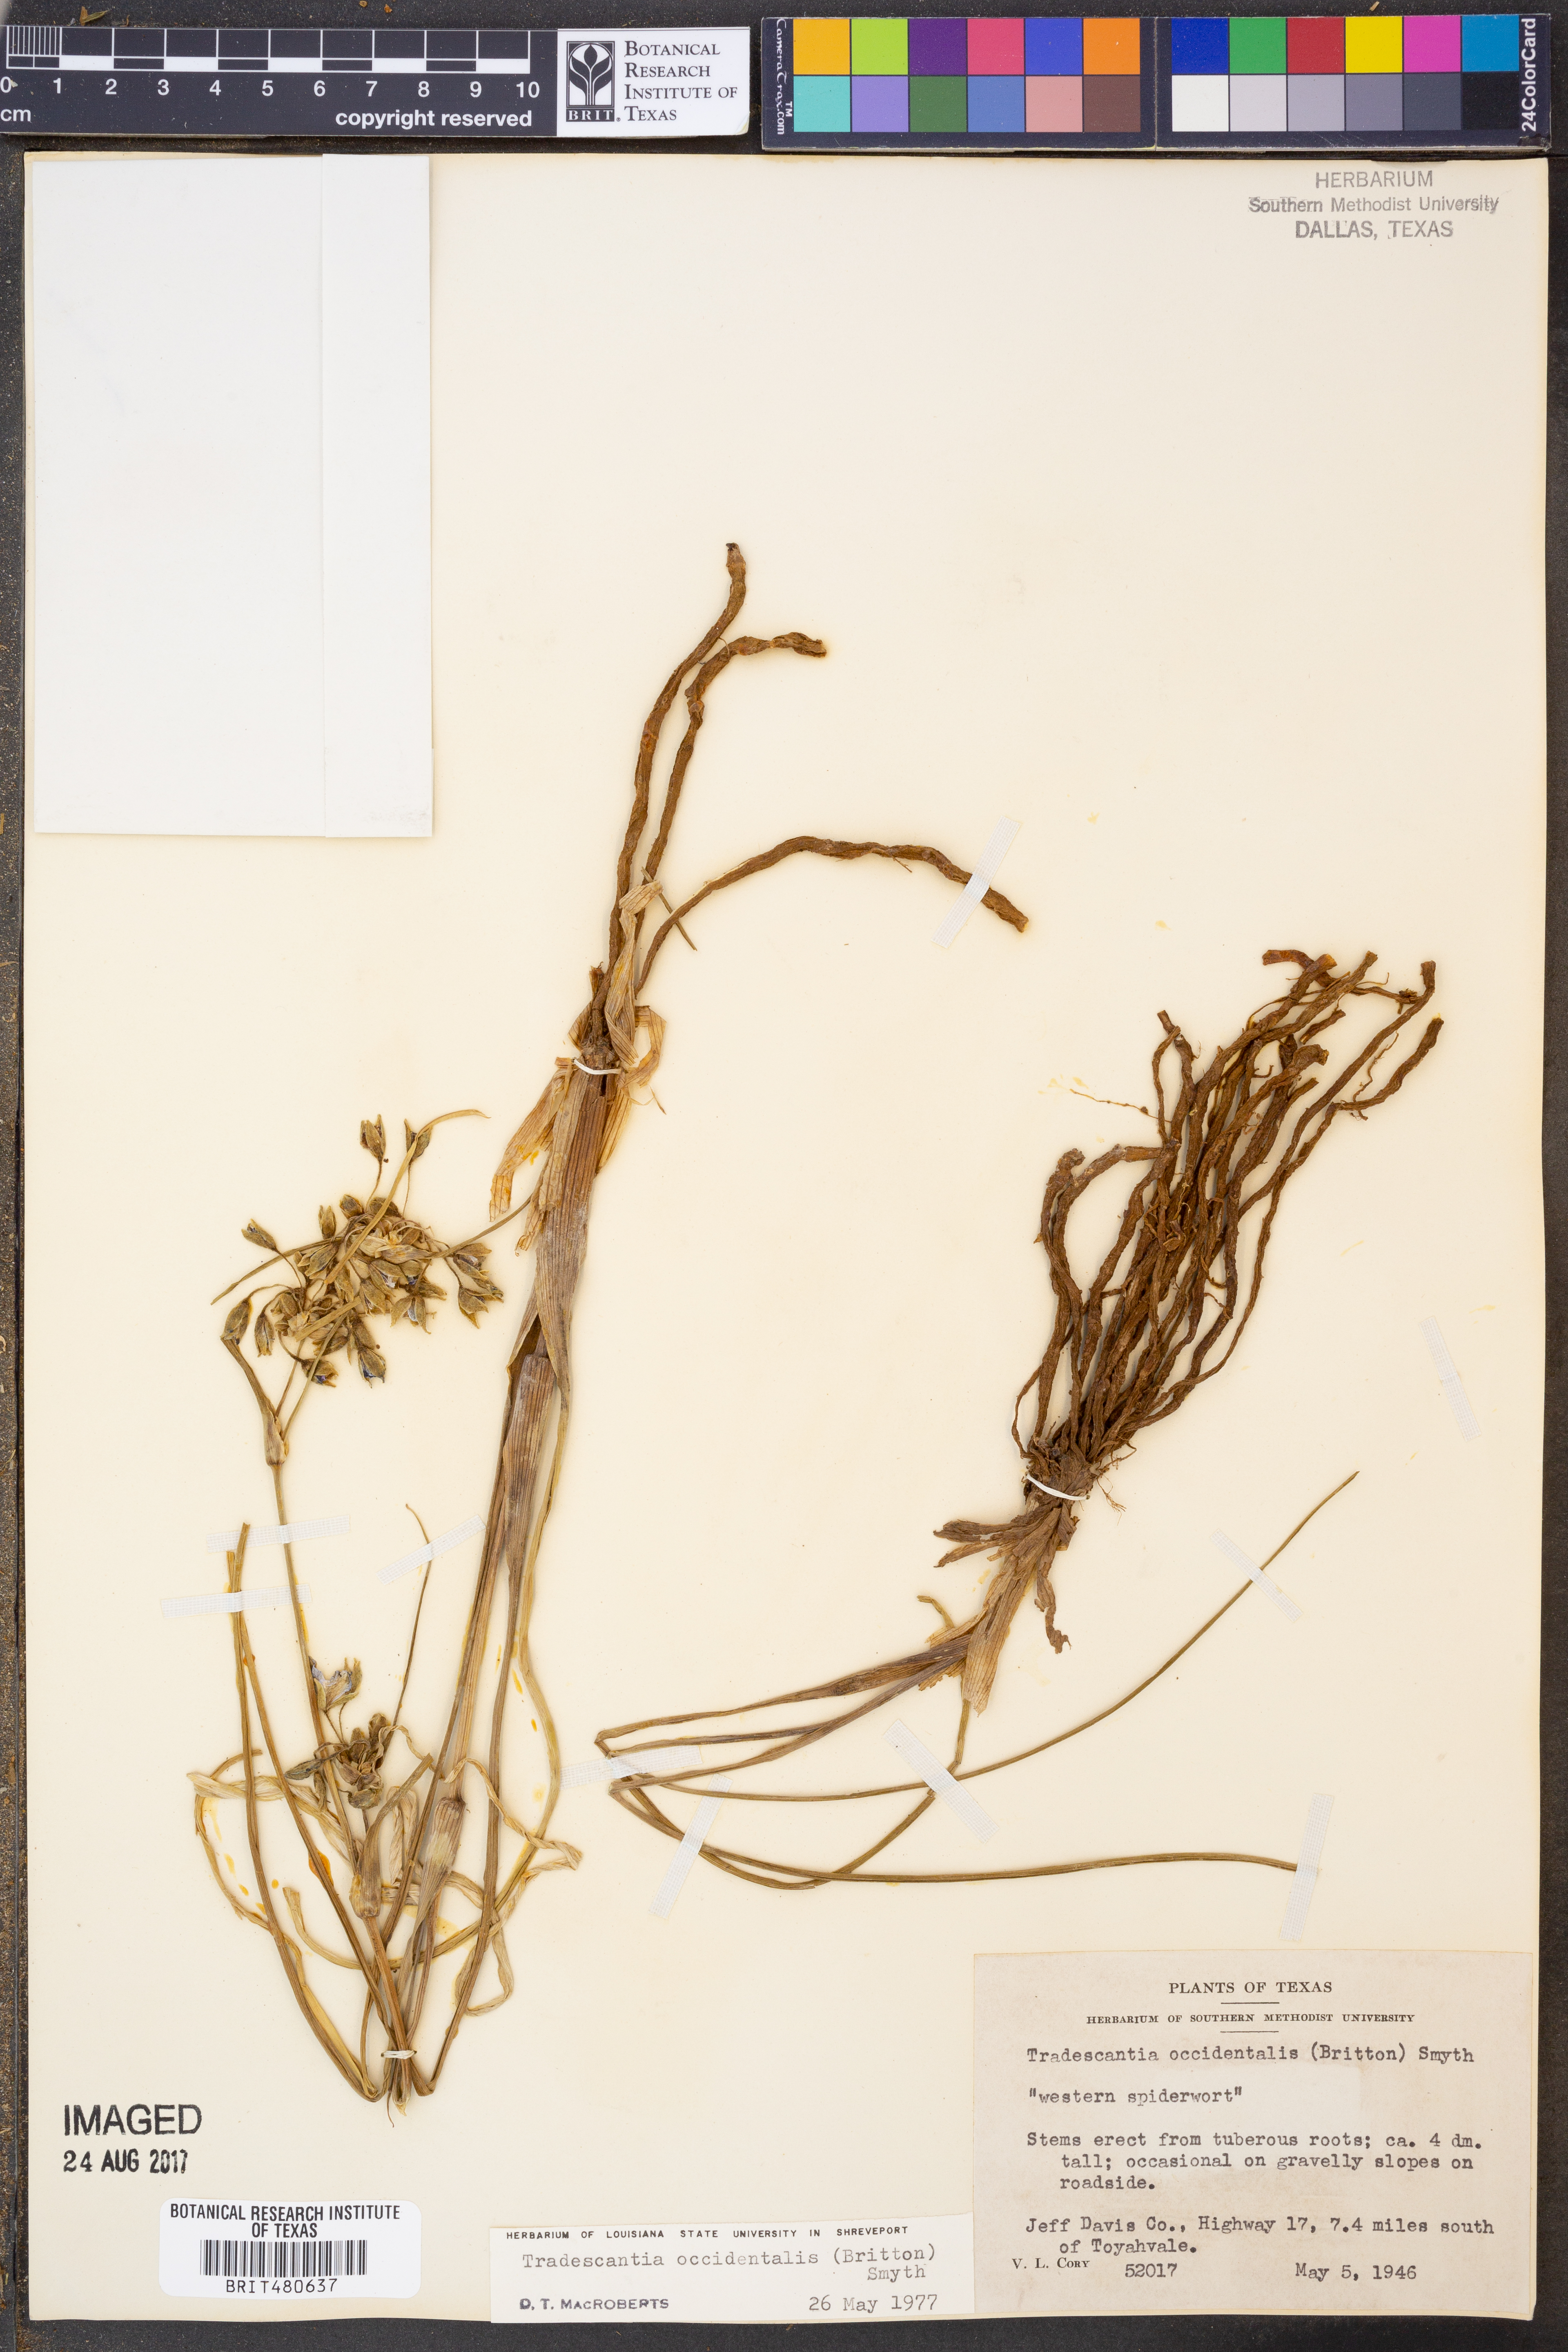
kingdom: Plantae
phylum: Tracheophyta
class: Liliopsida
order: Commelinales
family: Commelinaceae
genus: Tradescantia
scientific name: Tradescantia occidentalis
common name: Prairie spiderwort
